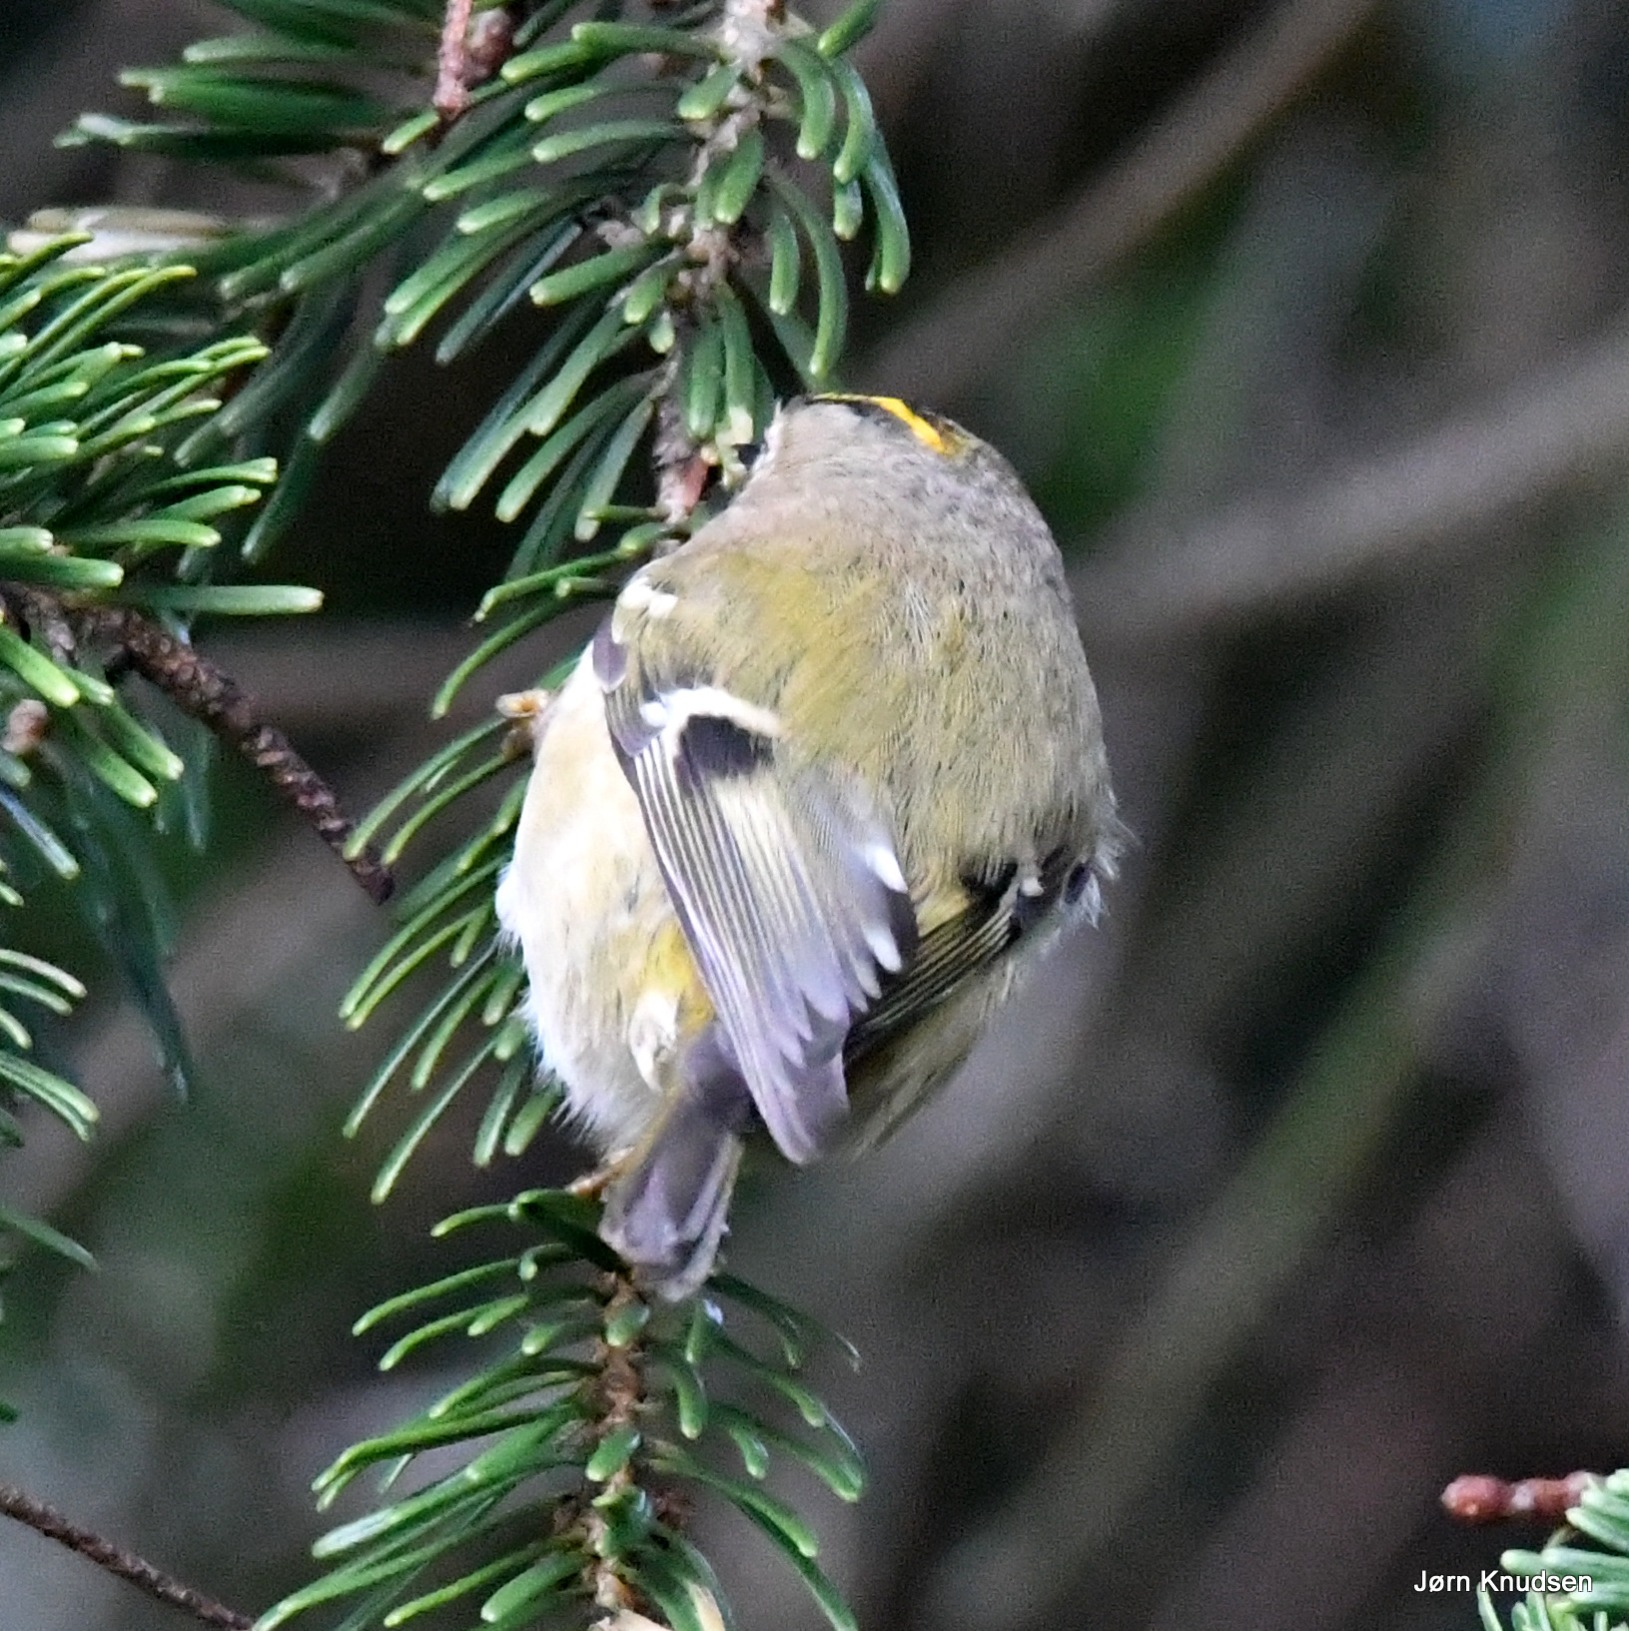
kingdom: Animalia
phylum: Chordata
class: Aves
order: Passeriformes
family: Regulidae
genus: Regulus
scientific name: Regulus regulus
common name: Fuglekonge
